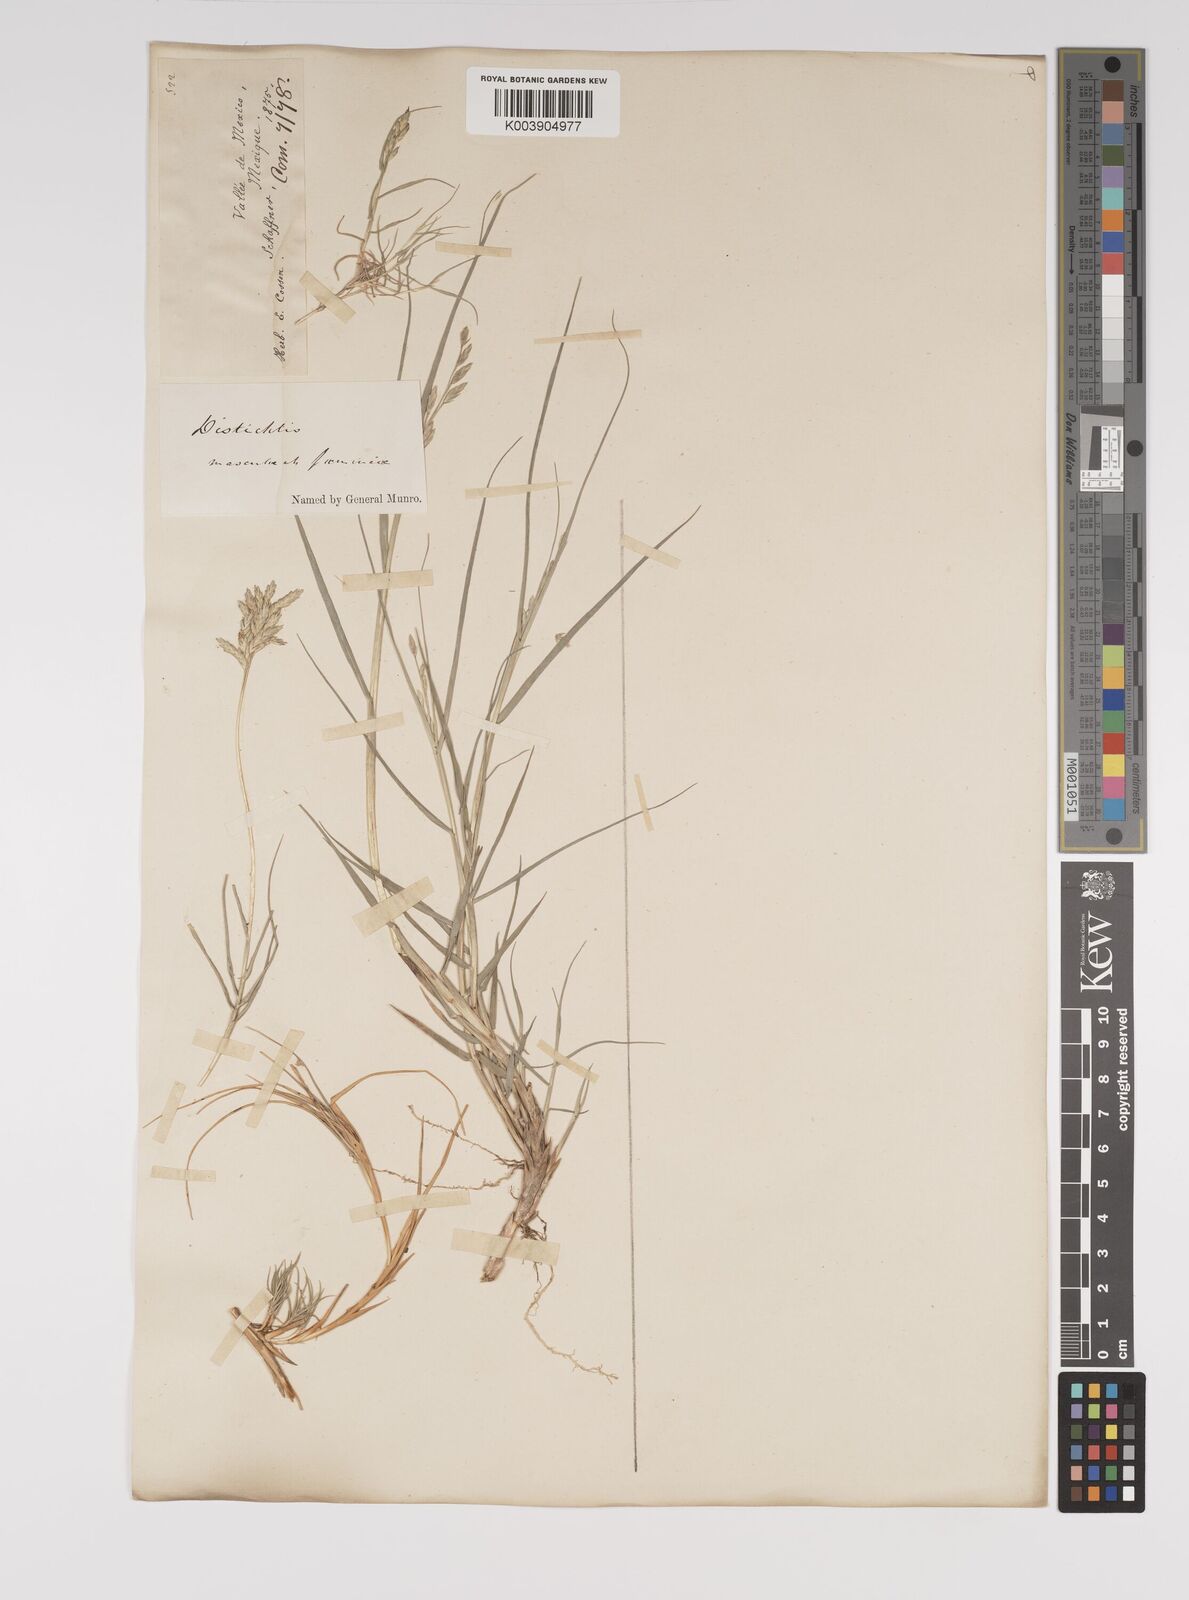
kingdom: Plantae
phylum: Tracheophyta
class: Liliopsida
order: Poales
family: Poaceae
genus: Distichlis
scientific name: Distichlis spicata
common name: Saltgrass
